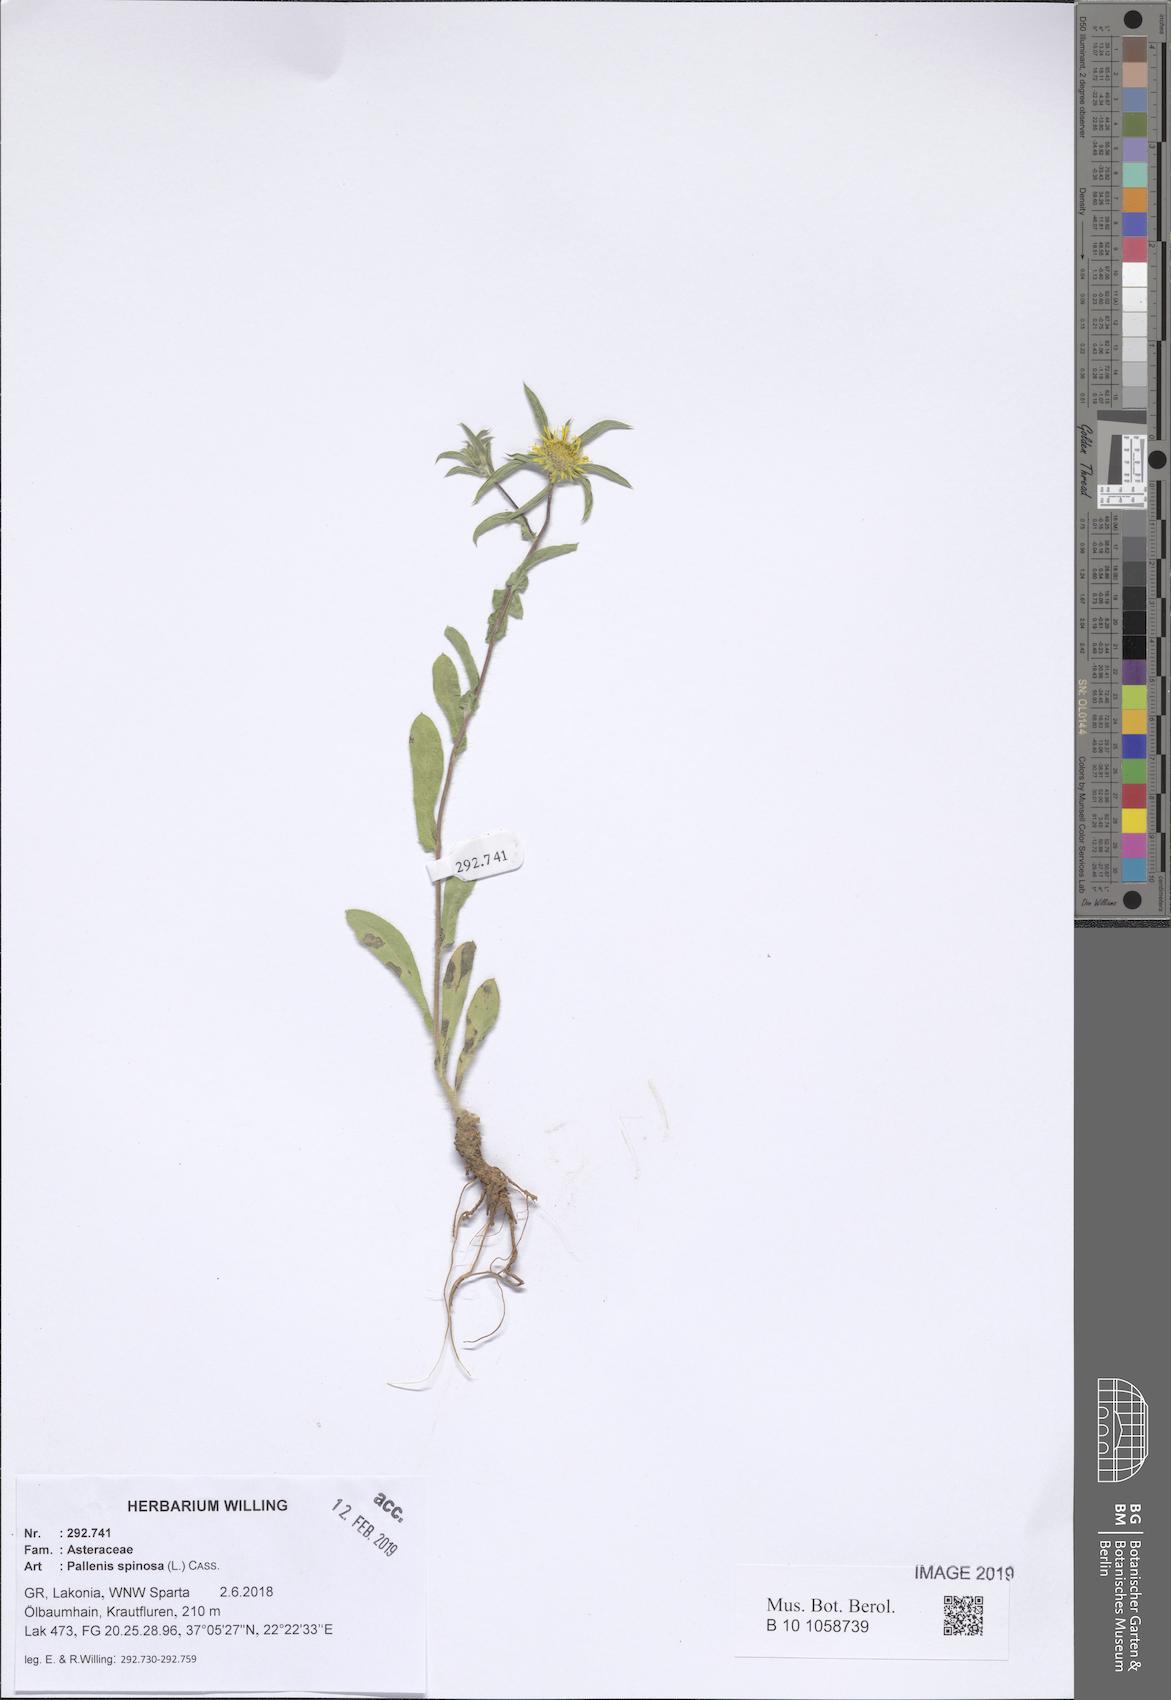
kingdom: Plantae
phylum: Tracheophyta
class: Magnoliopsida
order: Asterales
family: Asteraceae
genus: Pallenis
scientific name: Pallenis spinosa
